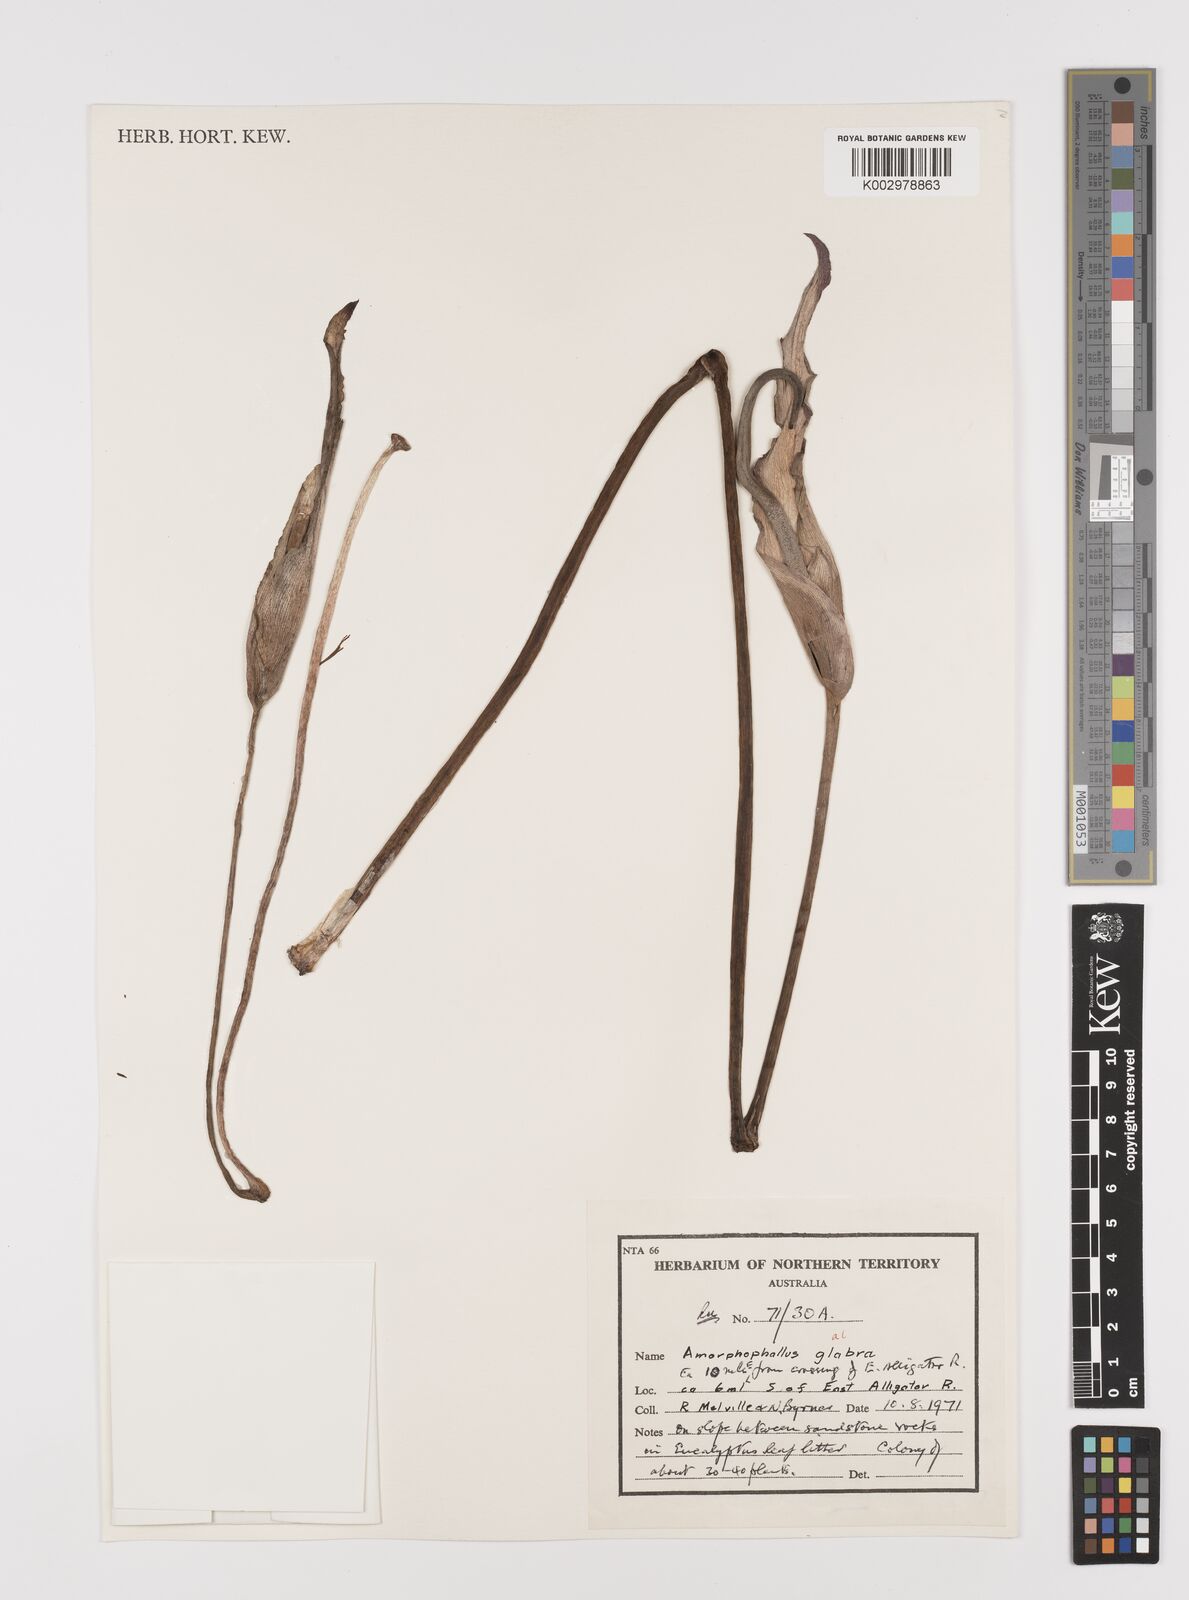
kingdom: Plantae
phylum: Tracheophyta
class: Liliopsida
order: Alismatales
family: Araceae
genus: Amorphophallus
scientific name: Amorphophallus galbra
